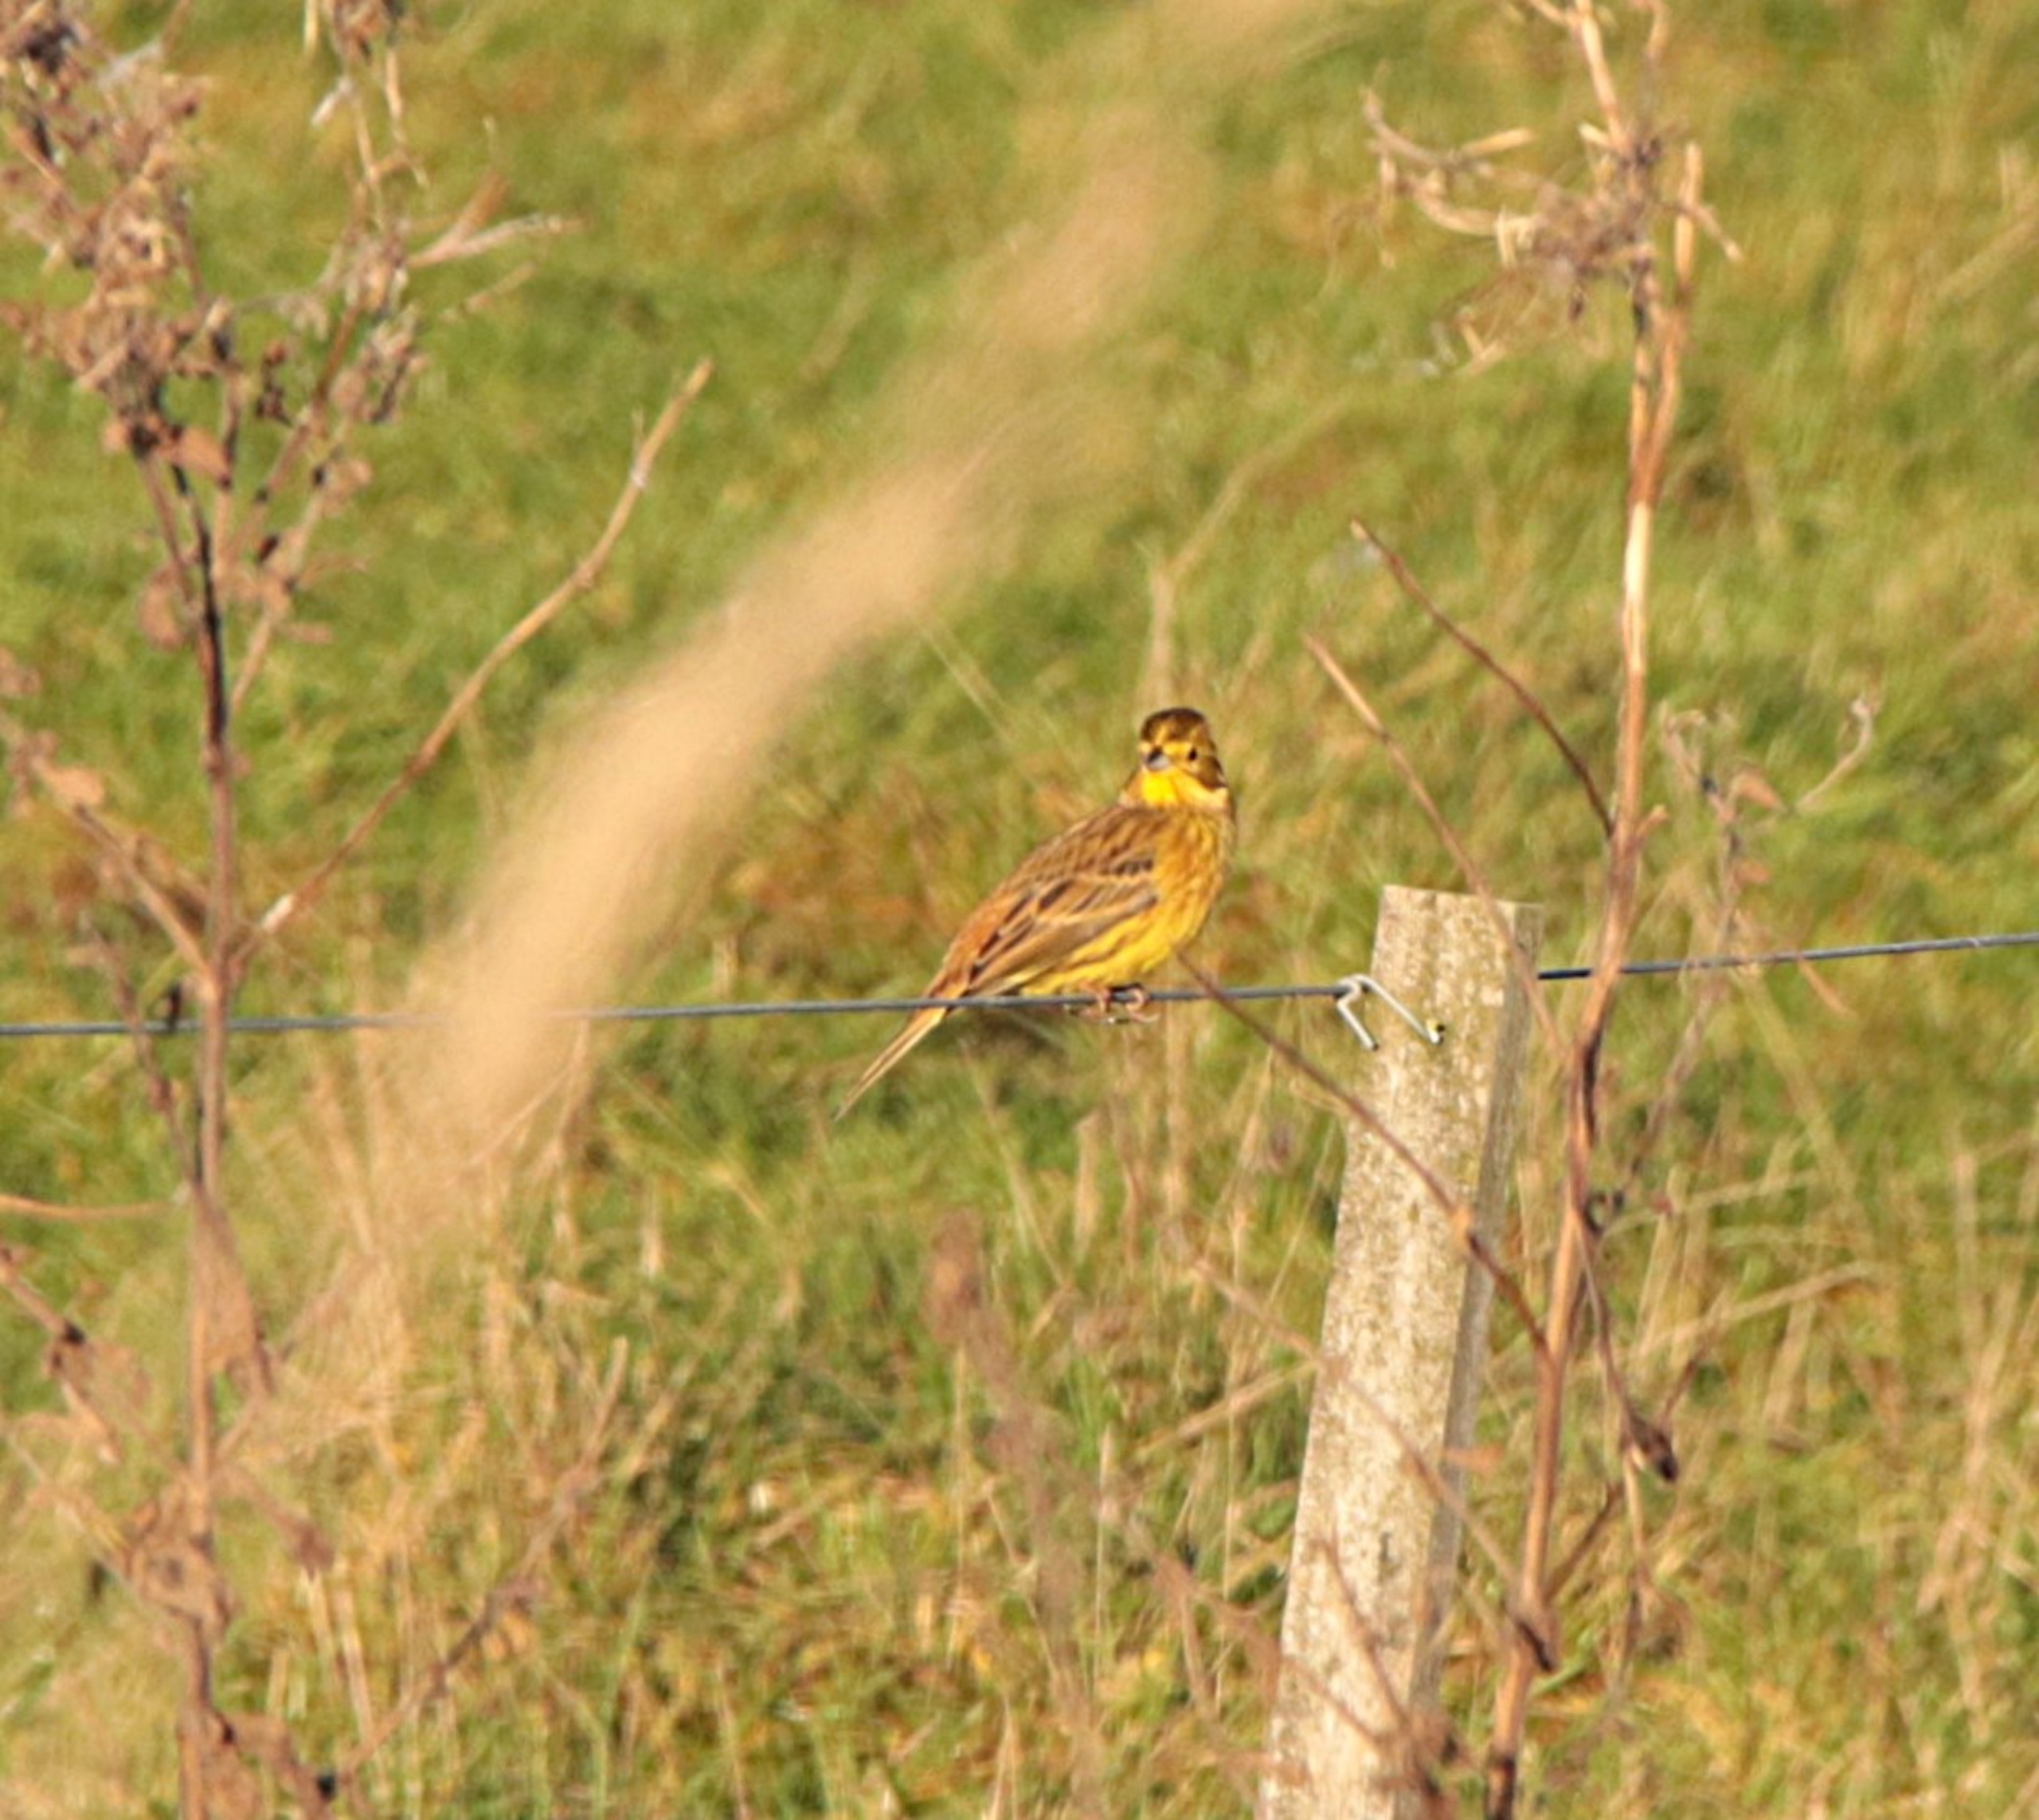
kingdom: Animalia
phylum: Chordata
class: Aves
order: Passeriformes
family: Emberizidae
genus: Emberiza
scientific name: Emberiza citrinella
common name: Gulspurv
